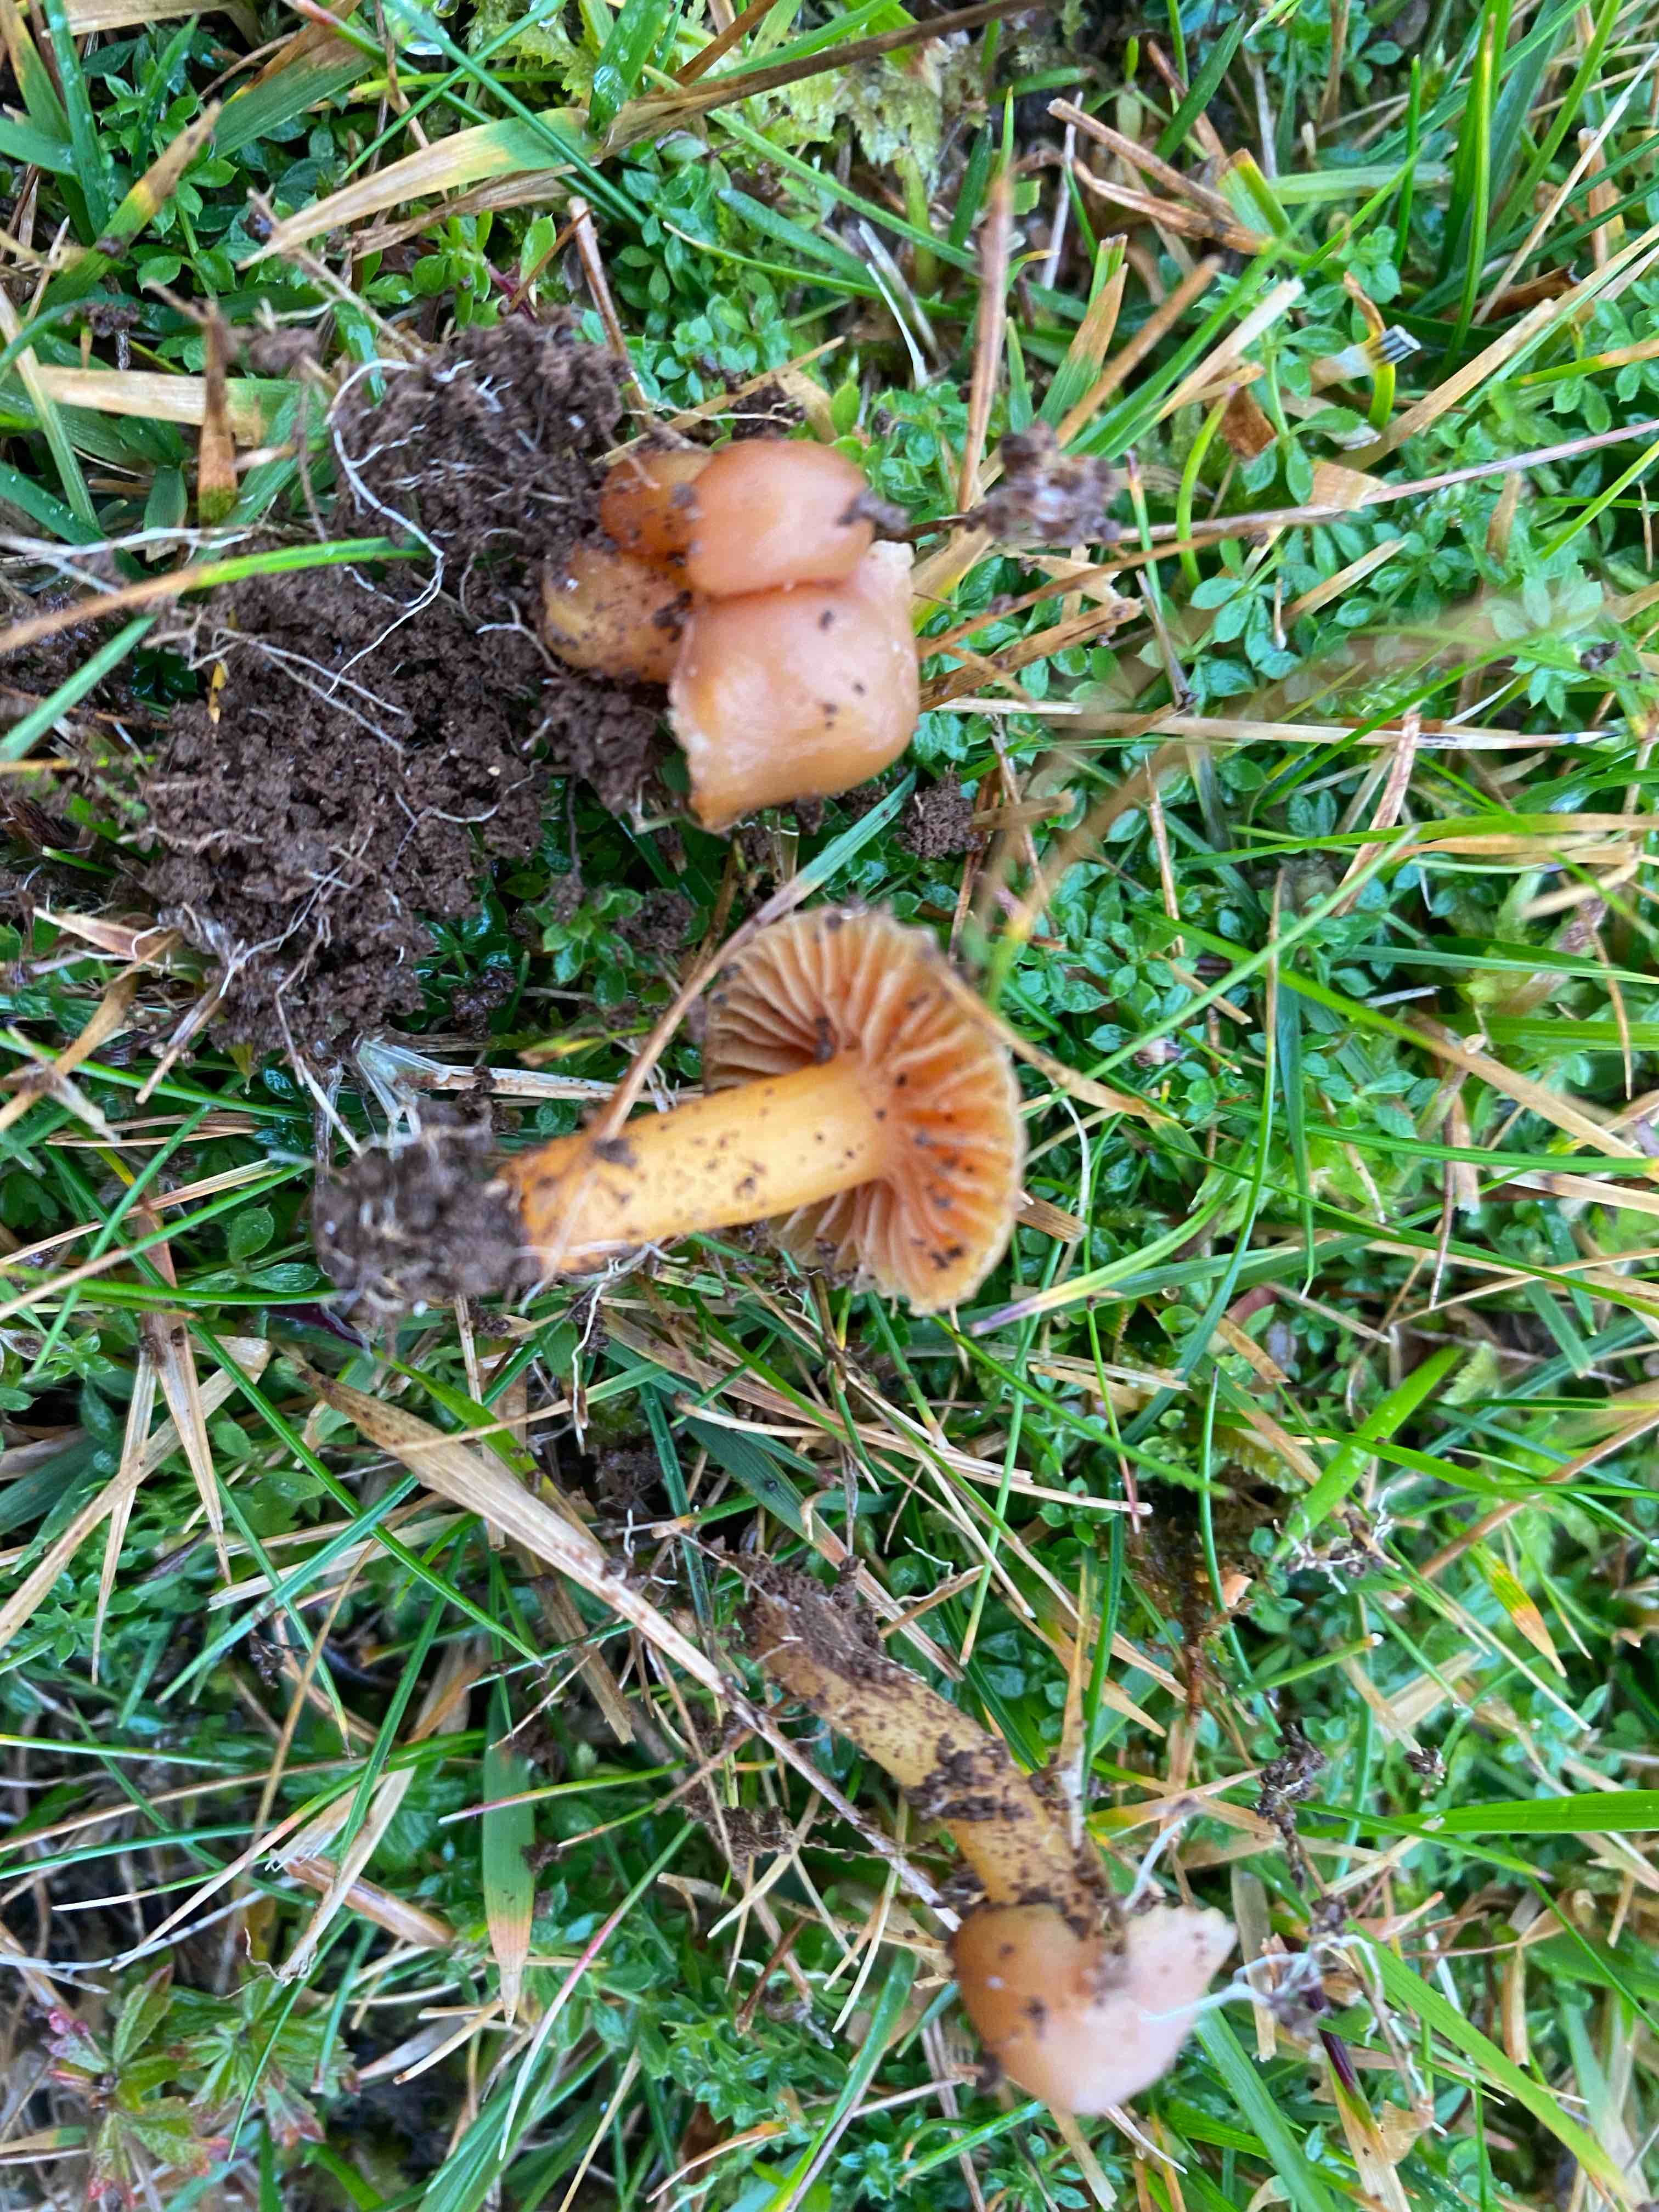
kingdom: Fungi
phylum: Basidiomycota
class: Agaricomycetes
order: Agaricales
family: Hygrophoraceae
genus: Hygrocybe
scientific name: Hygrocybe
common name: vokshat
